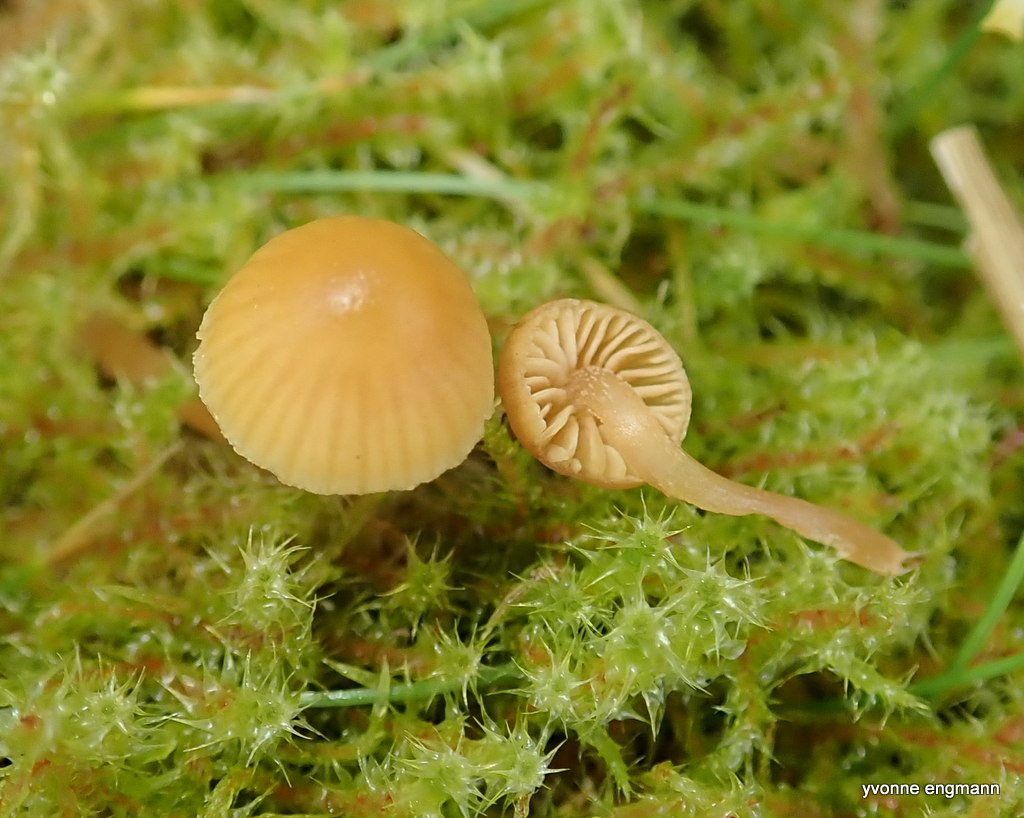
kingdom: Fungi
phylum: Basidiomycota
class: Agaricomycetes
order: Agaricales
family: Hymenogastraceae
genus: Galerina
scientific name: Galerina
